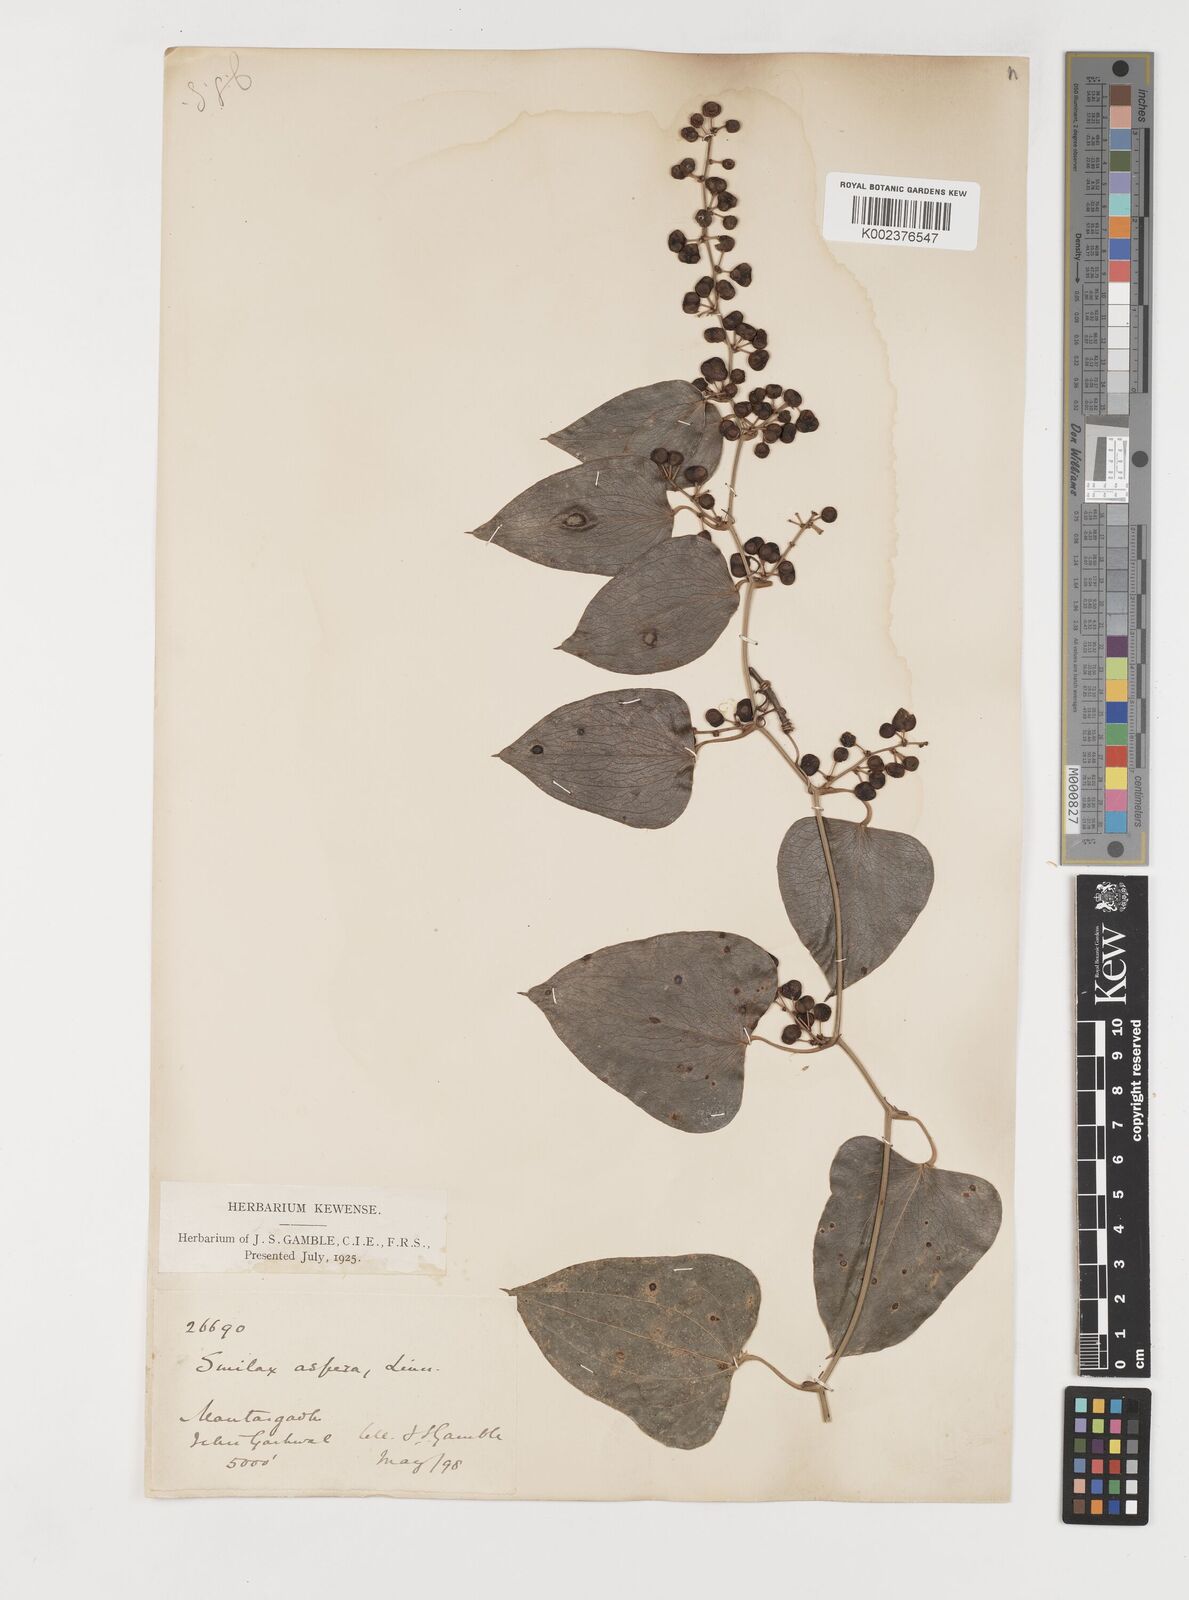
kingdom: Plantae
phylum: Tracheophyta
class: Liliopsida
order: Liliales
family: Smilacaceae
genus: Smilax
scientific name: Smilax aspera
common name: Common smilax
